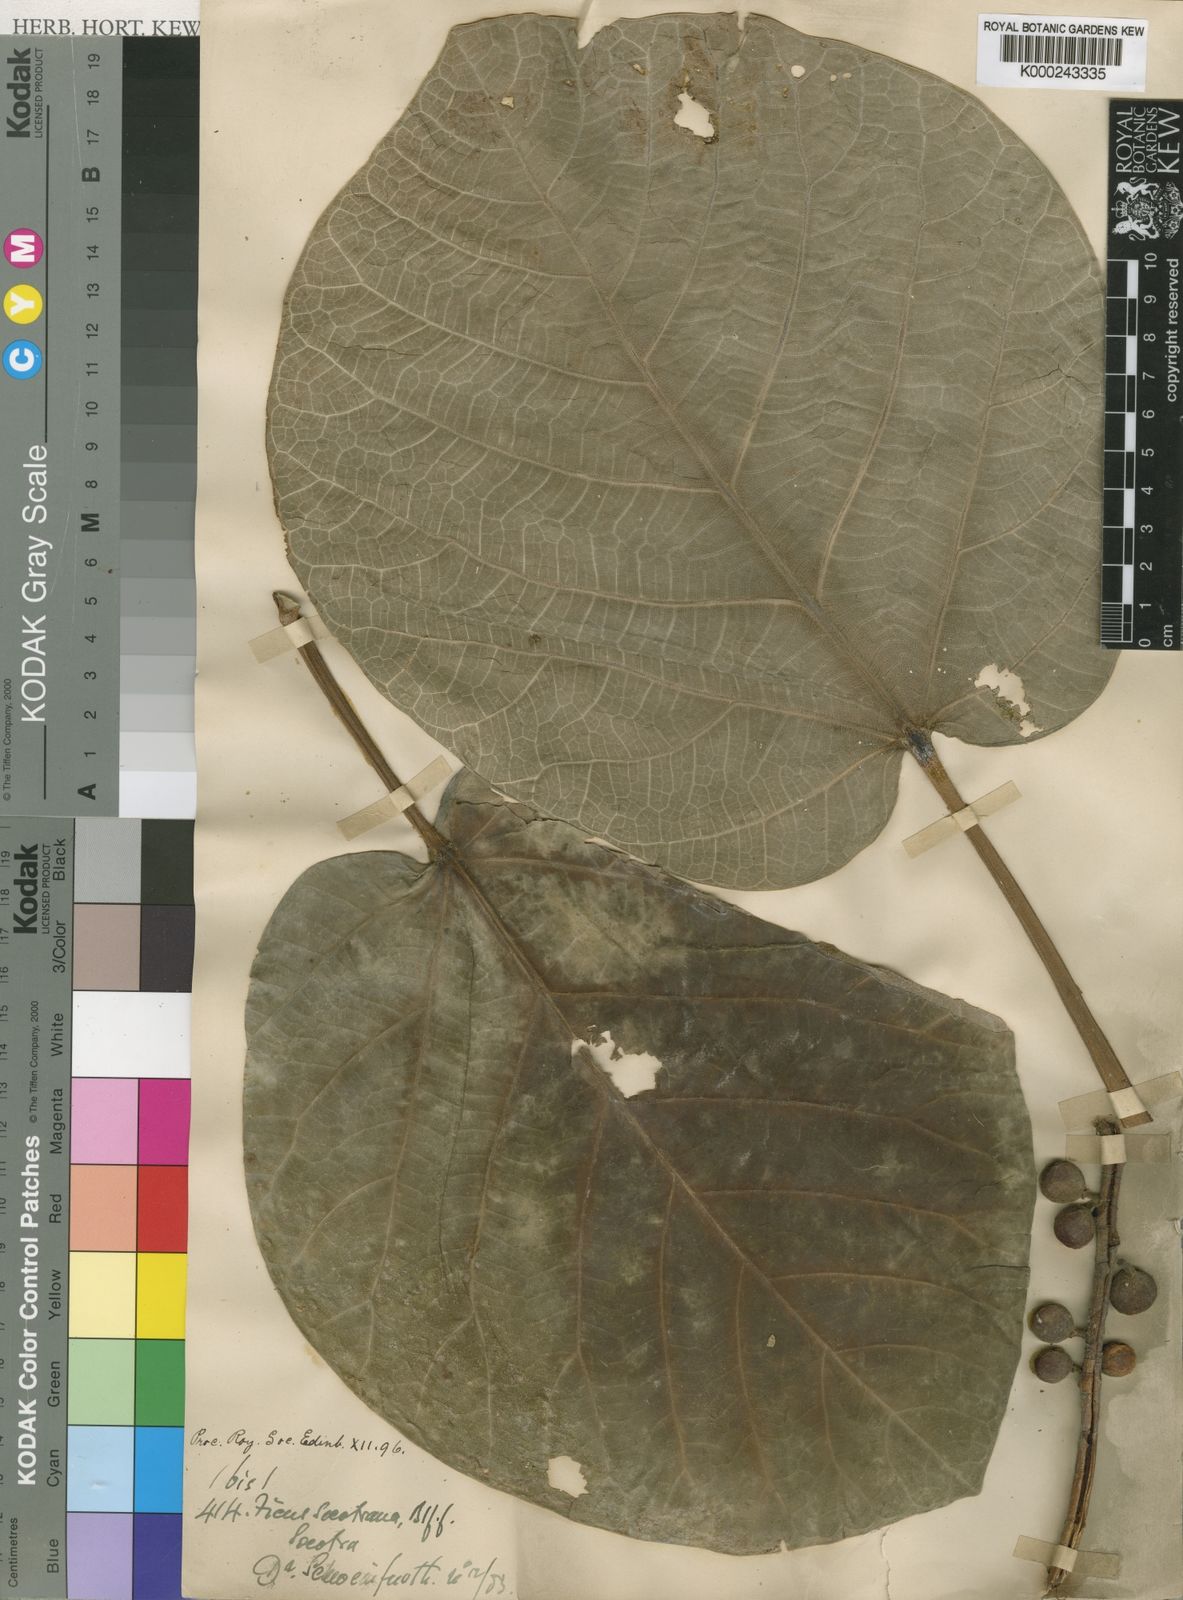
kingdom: Plantae
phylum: Tracheophyta
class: Magnoliopsida
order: Rosales
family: Moraceae
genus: Ficus
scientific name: Ficus vasta
